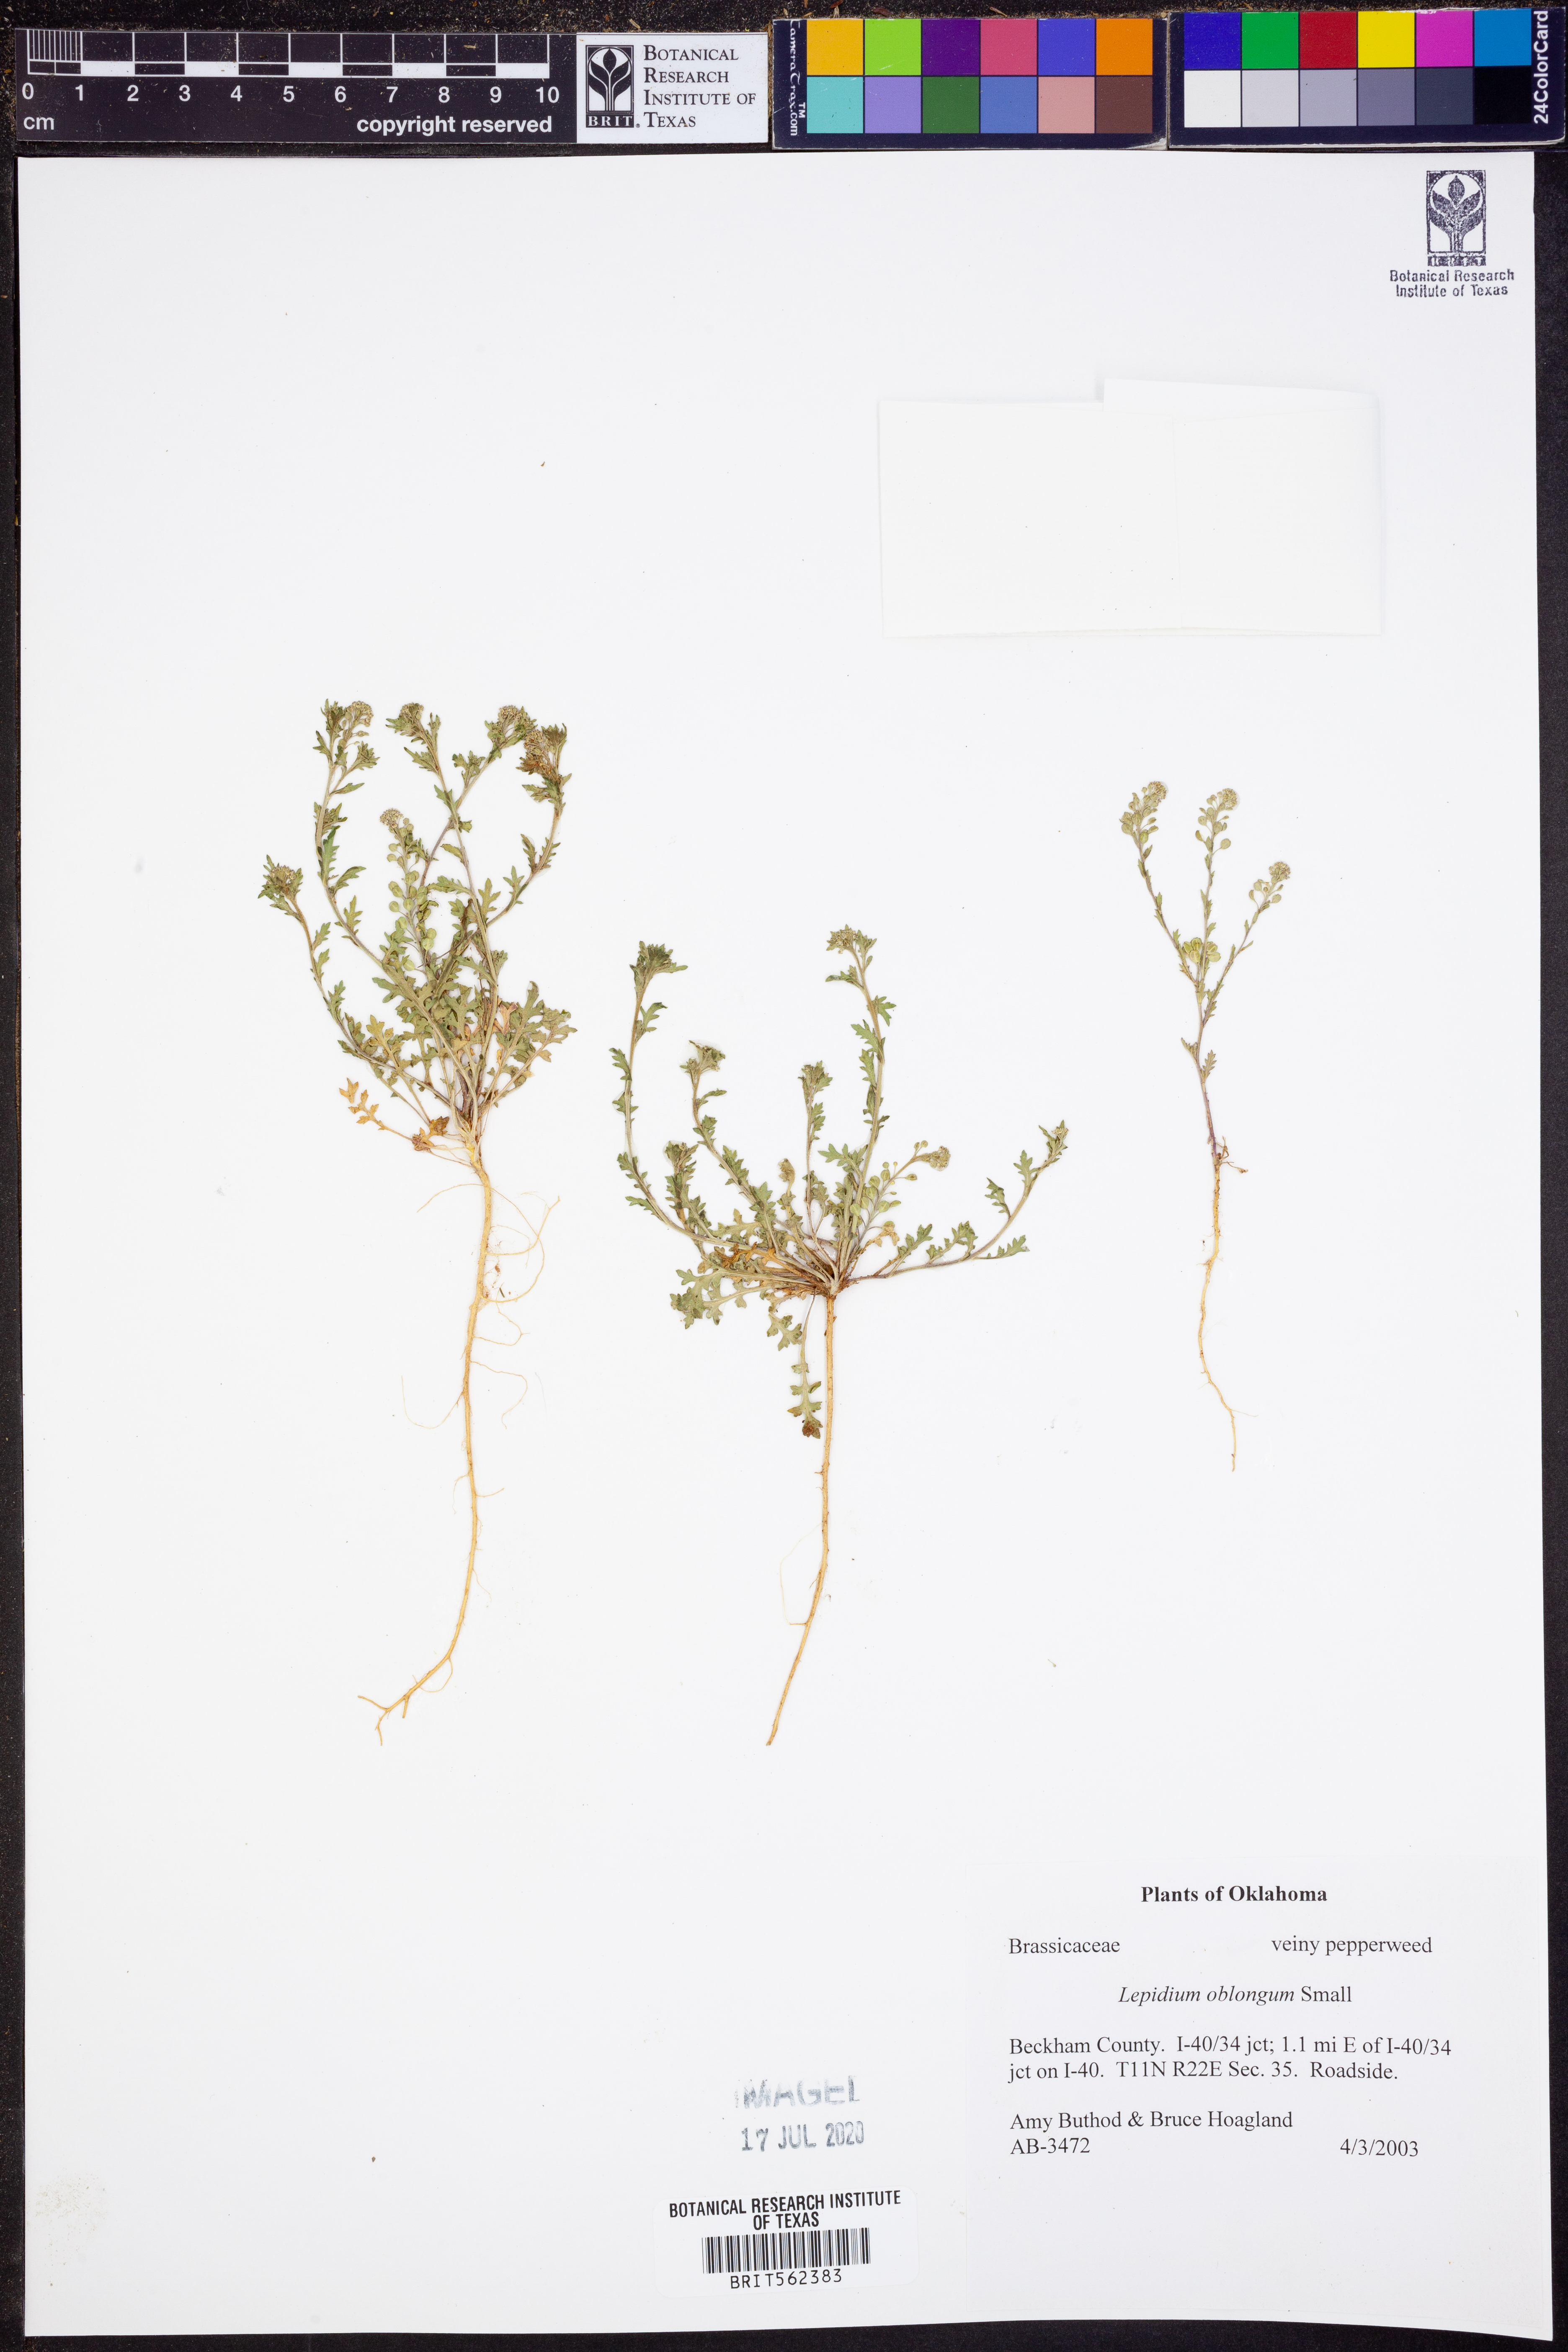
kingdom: Plantae
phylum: Tracheophyta
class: Magnoliopsida
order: Brassicales
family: Brassicaceae
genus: Lepidium
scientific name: Lepidium oblongum
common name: Veiny pepperweed
